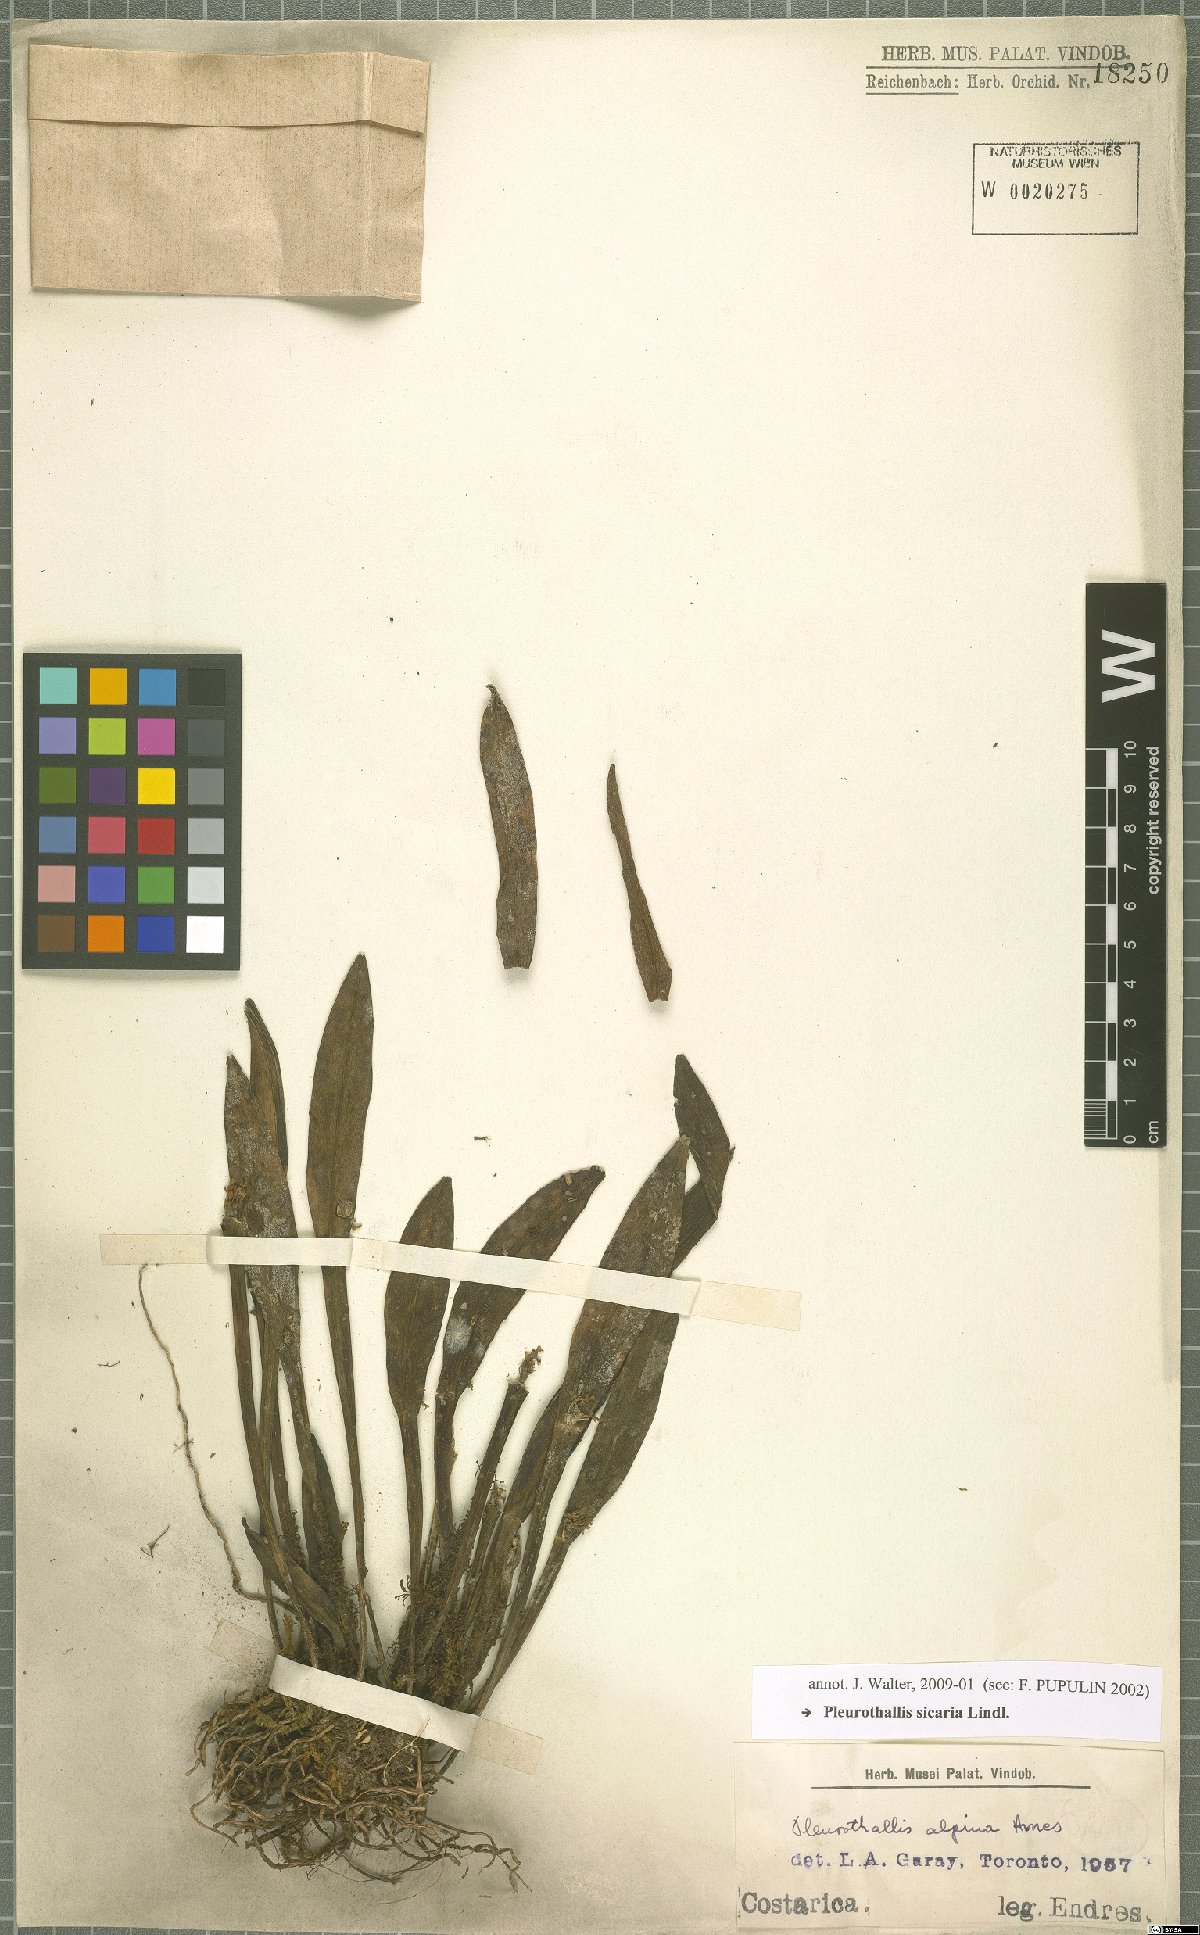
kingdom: Plantae
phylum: Tracheophyta
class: Liliopsida
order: Asparagales
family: Orchidaceae
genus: Acianthera
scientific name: Acianthera sicaria
